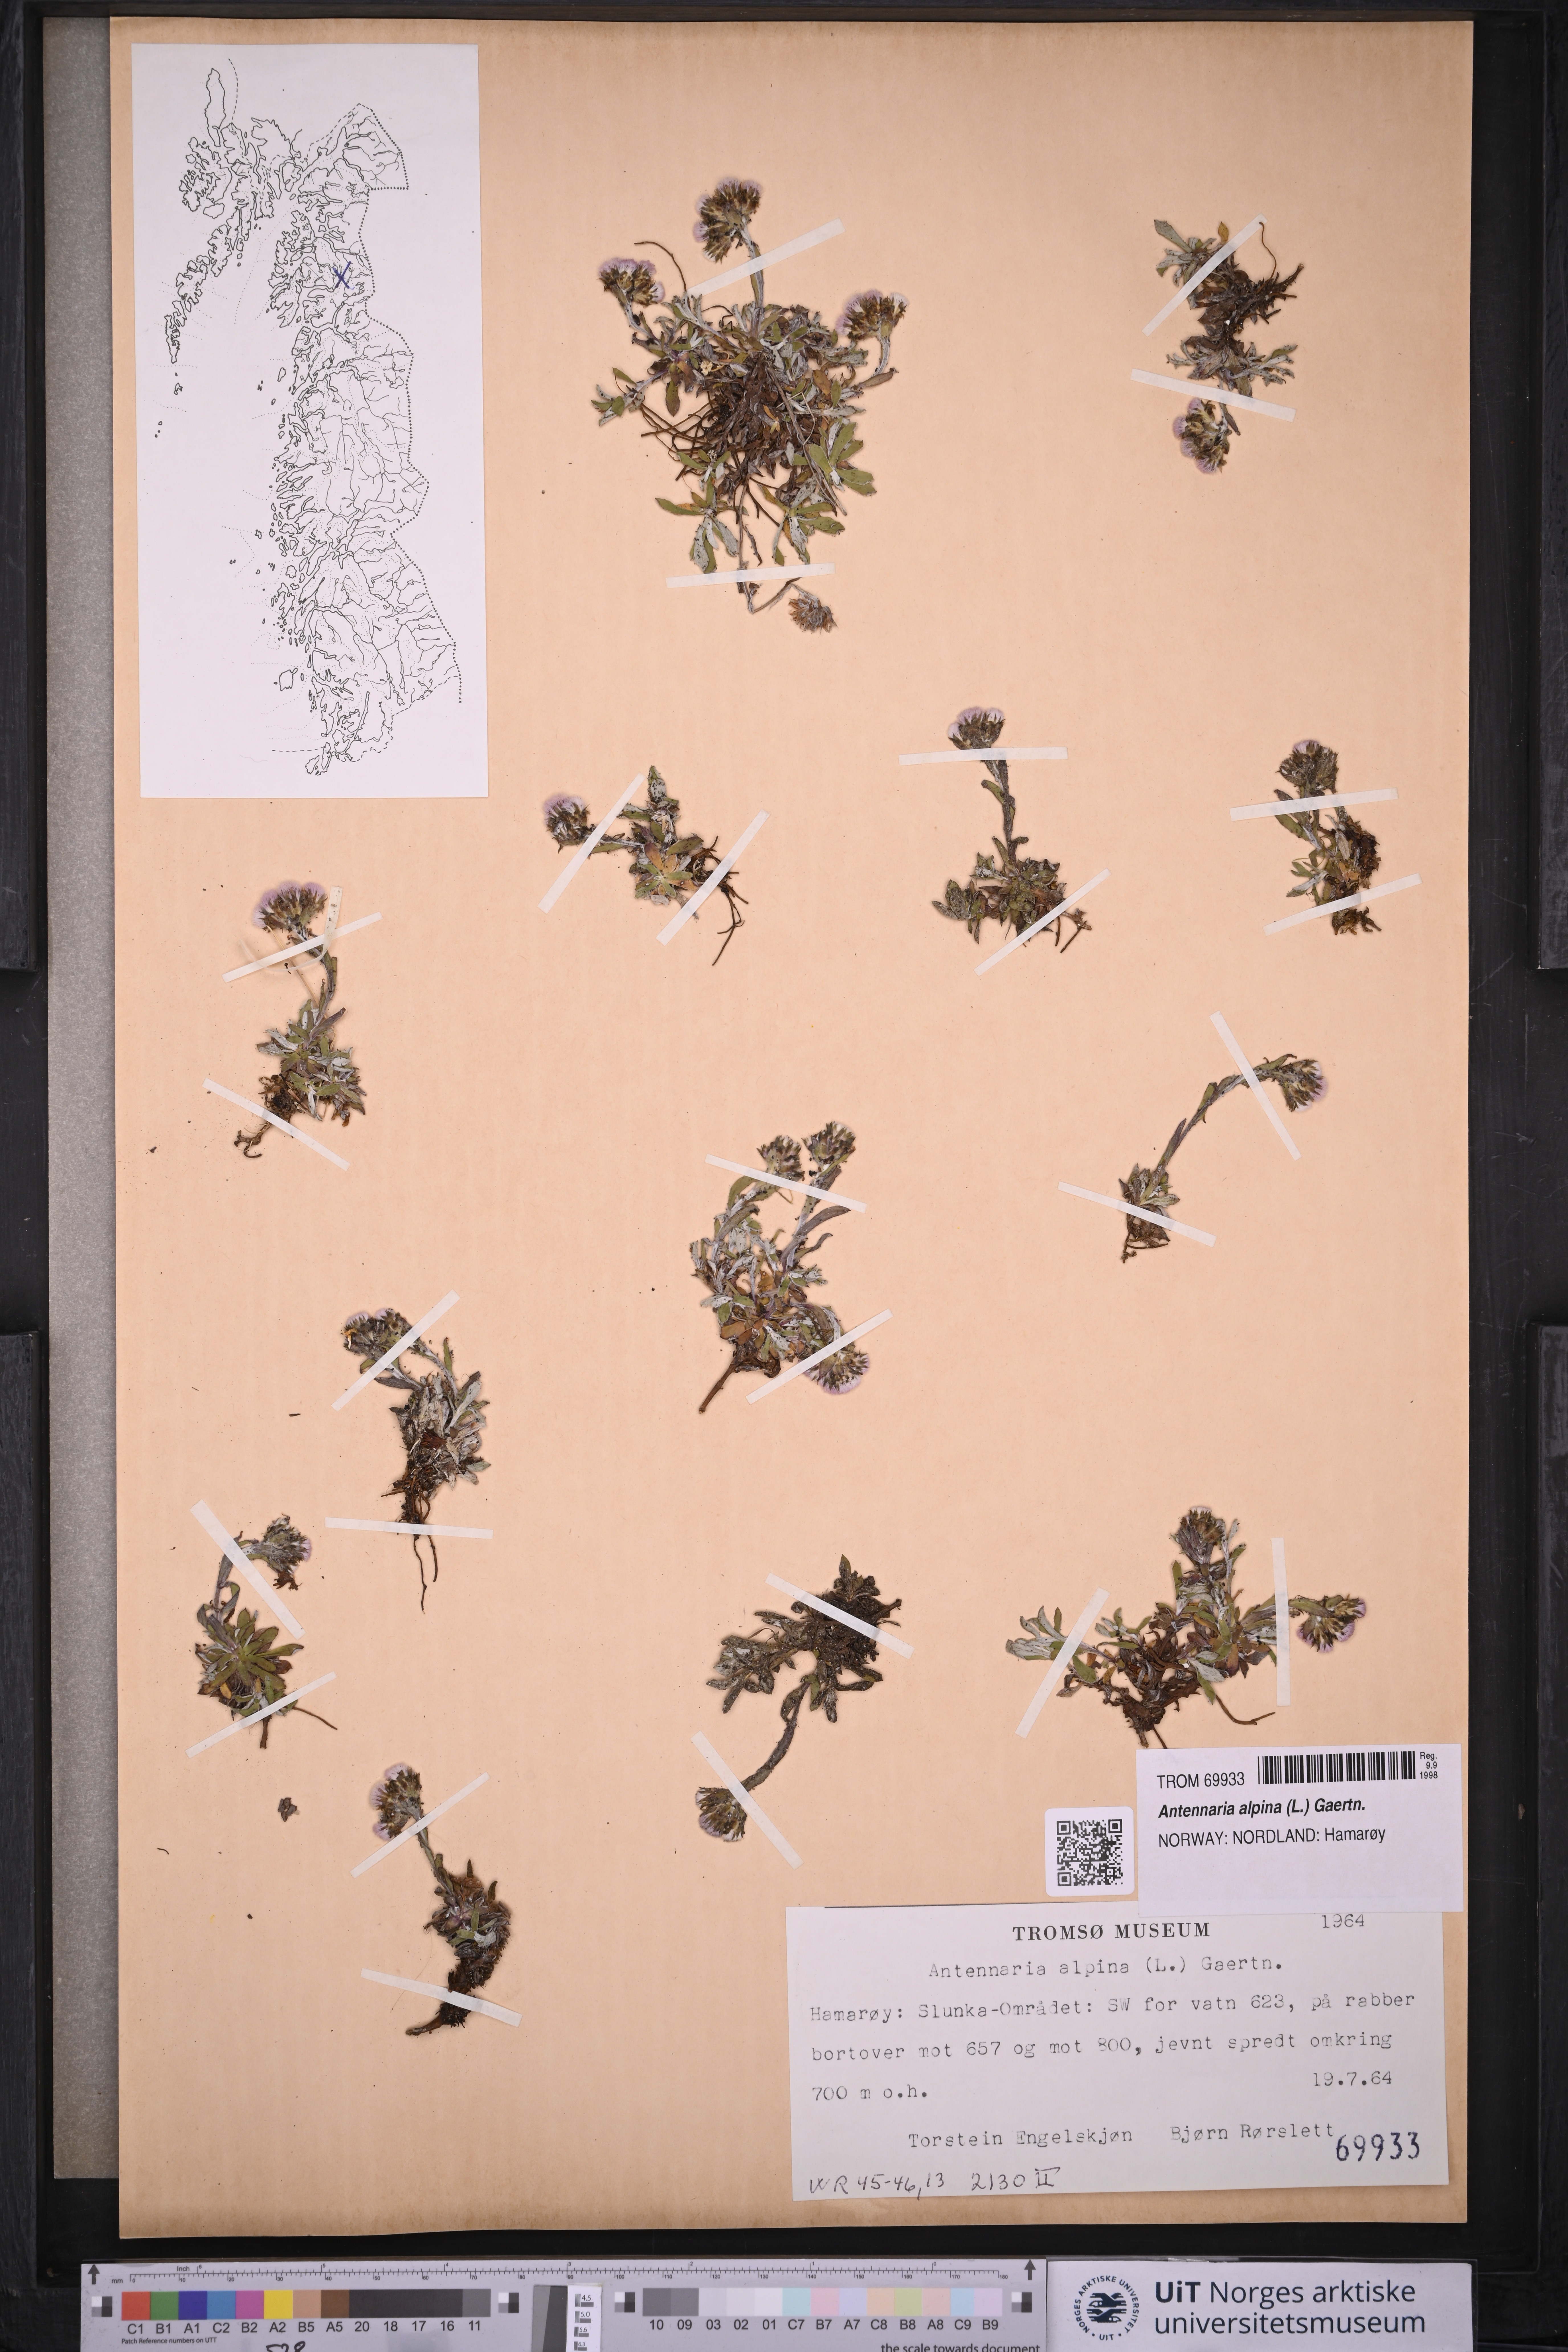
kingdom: Plantae
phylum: Tracheophyta
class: Magnoliopsida
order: Asterales
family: Asteraceae
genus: Antennaria
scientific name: Antennaria alpina
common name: Alpine pussytoes
